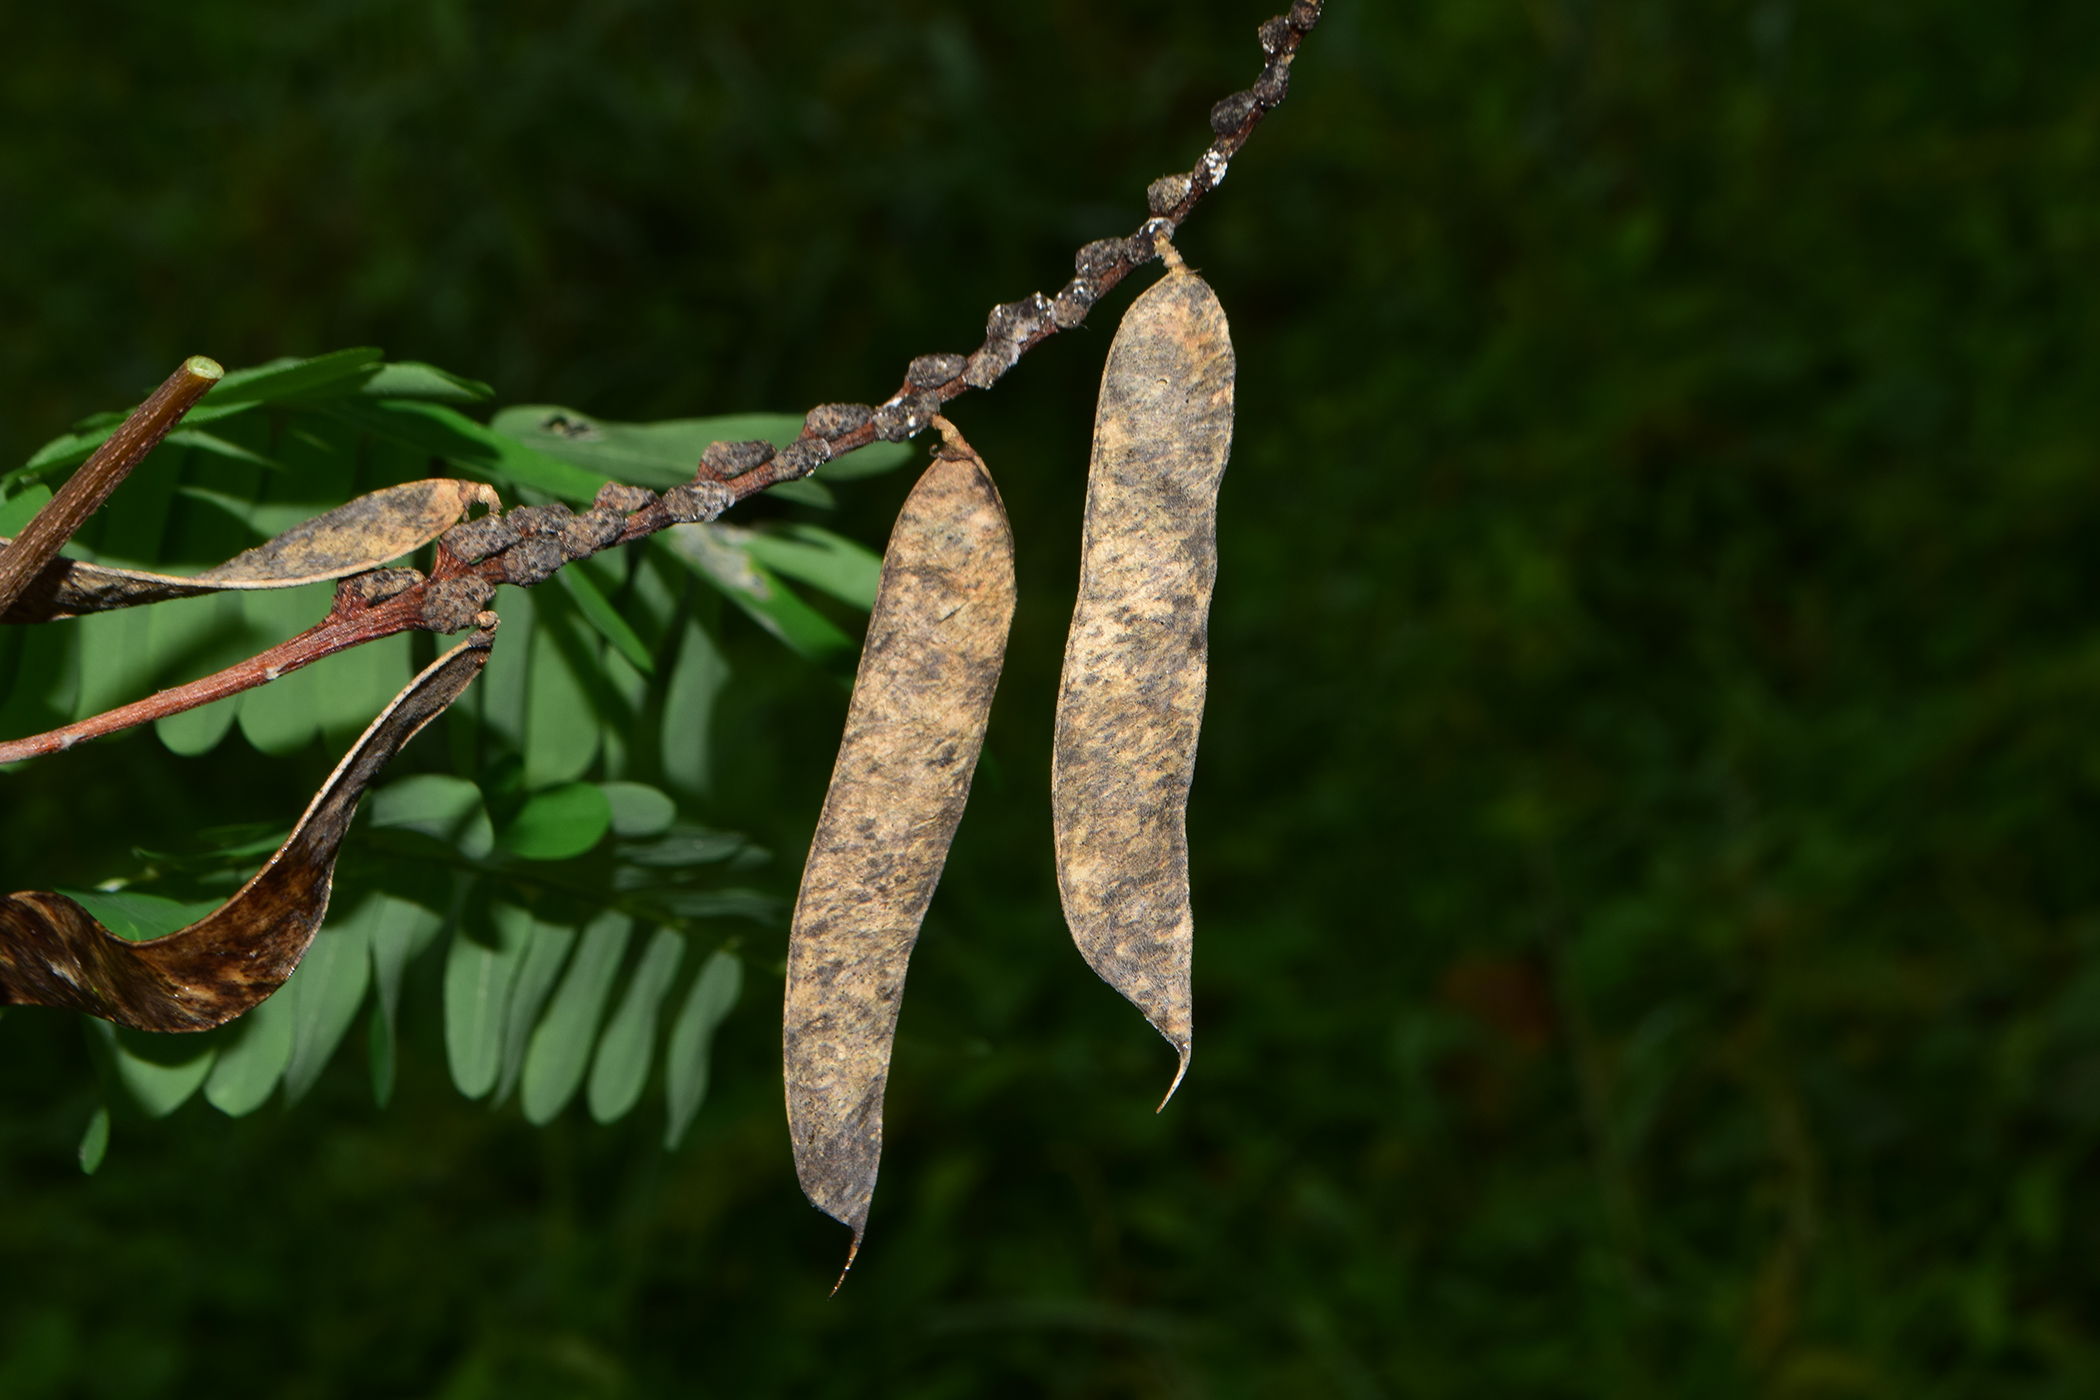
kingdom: Plantae
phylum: Tracheophyta
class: Magnoliopsida
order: Fabales
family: Fabaceae
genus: Abrus
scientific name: Abrus fruticulosus
